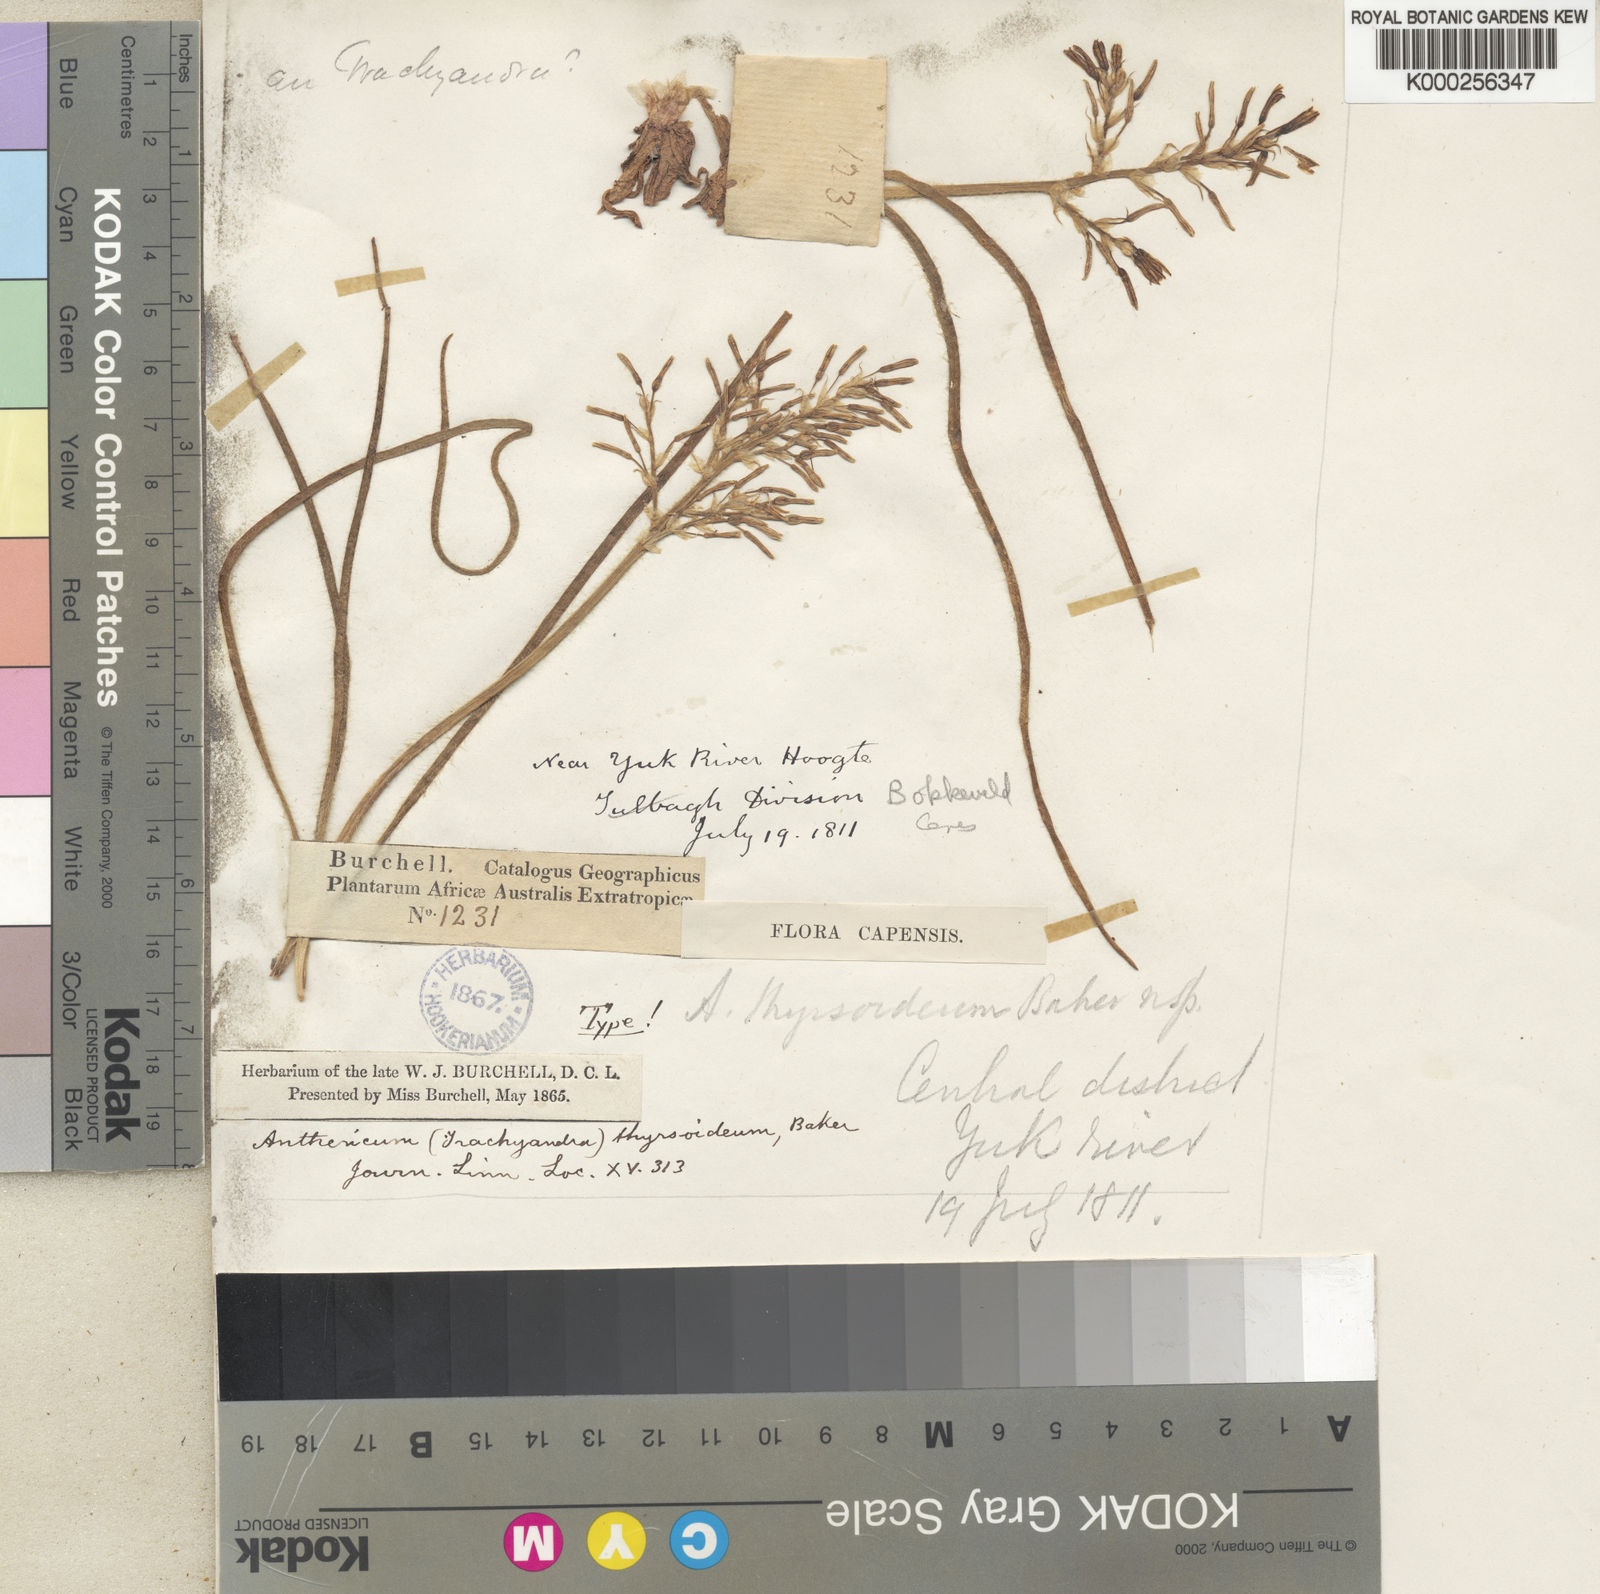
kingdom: Plantae
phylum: Tracheophyta
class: Liliopsida
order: Asparagales
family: Asphodelaceae
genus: Trachyandra
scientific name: Trachyandra thyrsoidea
